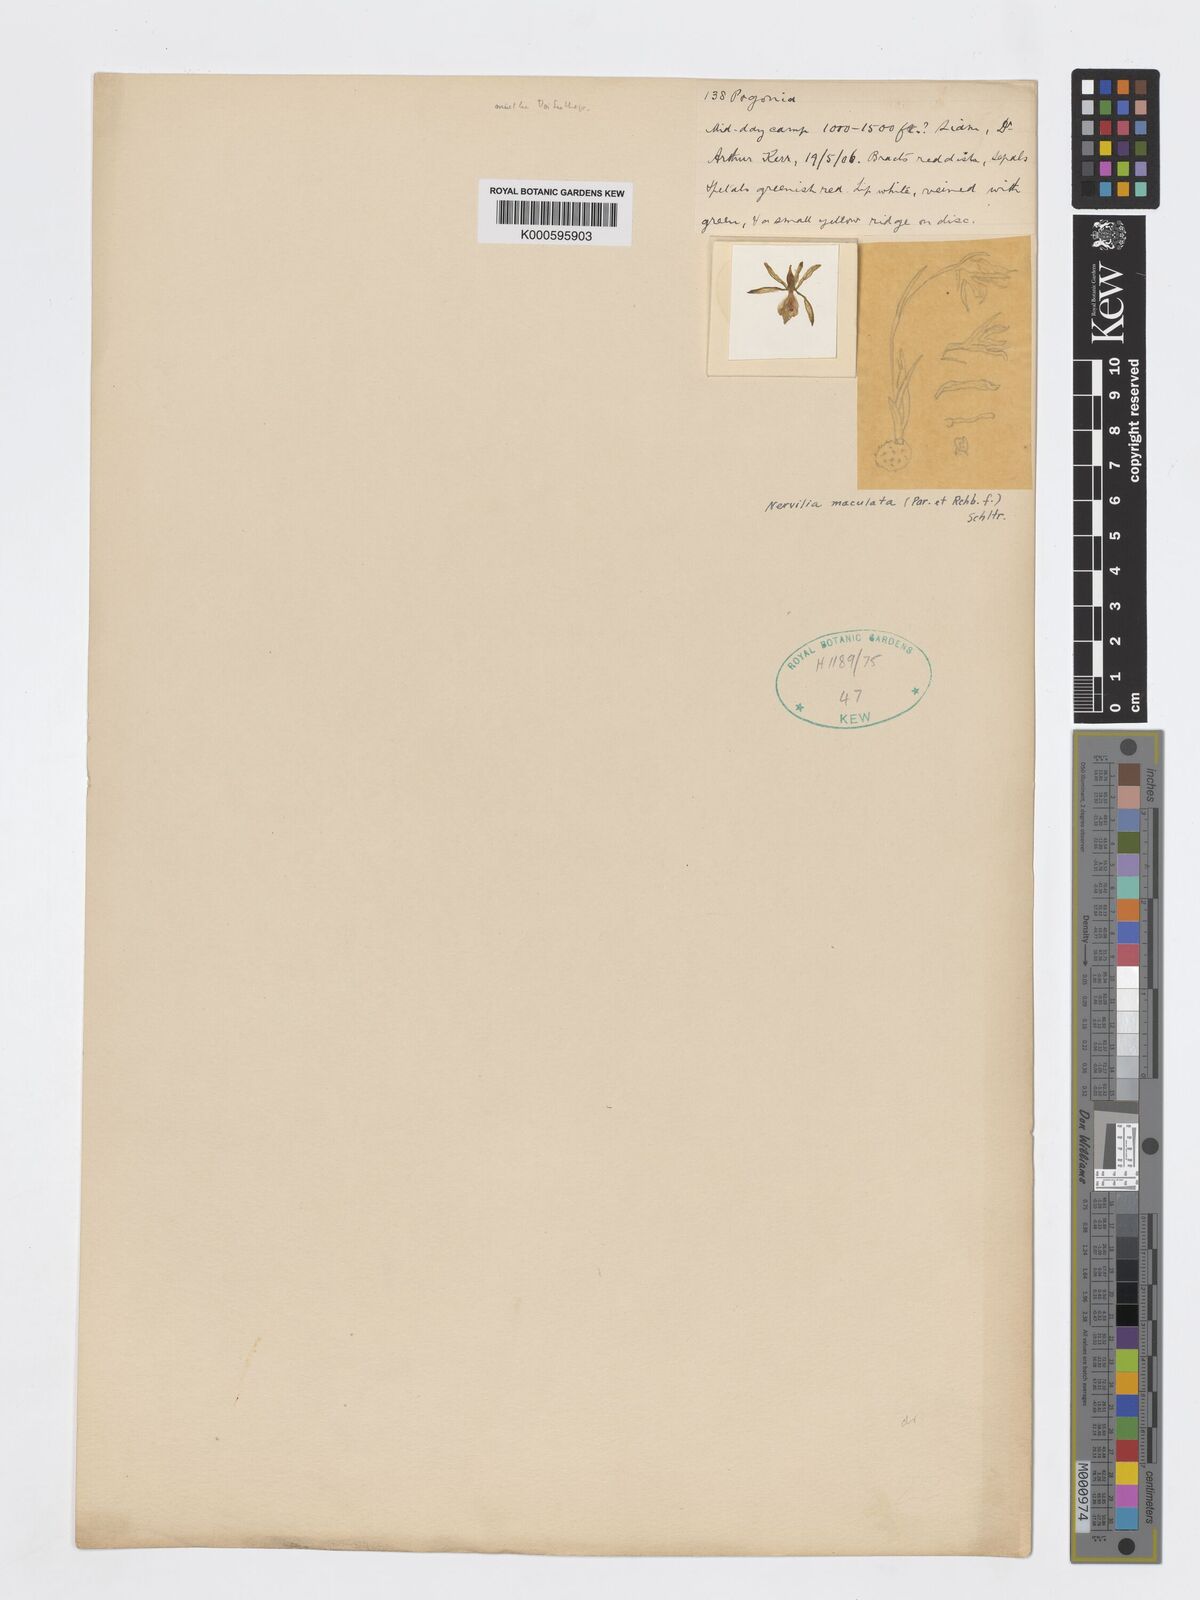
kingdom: Plantae
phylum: Tracheophyta
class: Liliopsida
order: Asparagales
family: Orchidaceae
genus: Nervilia
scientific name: Nervilia maculata
